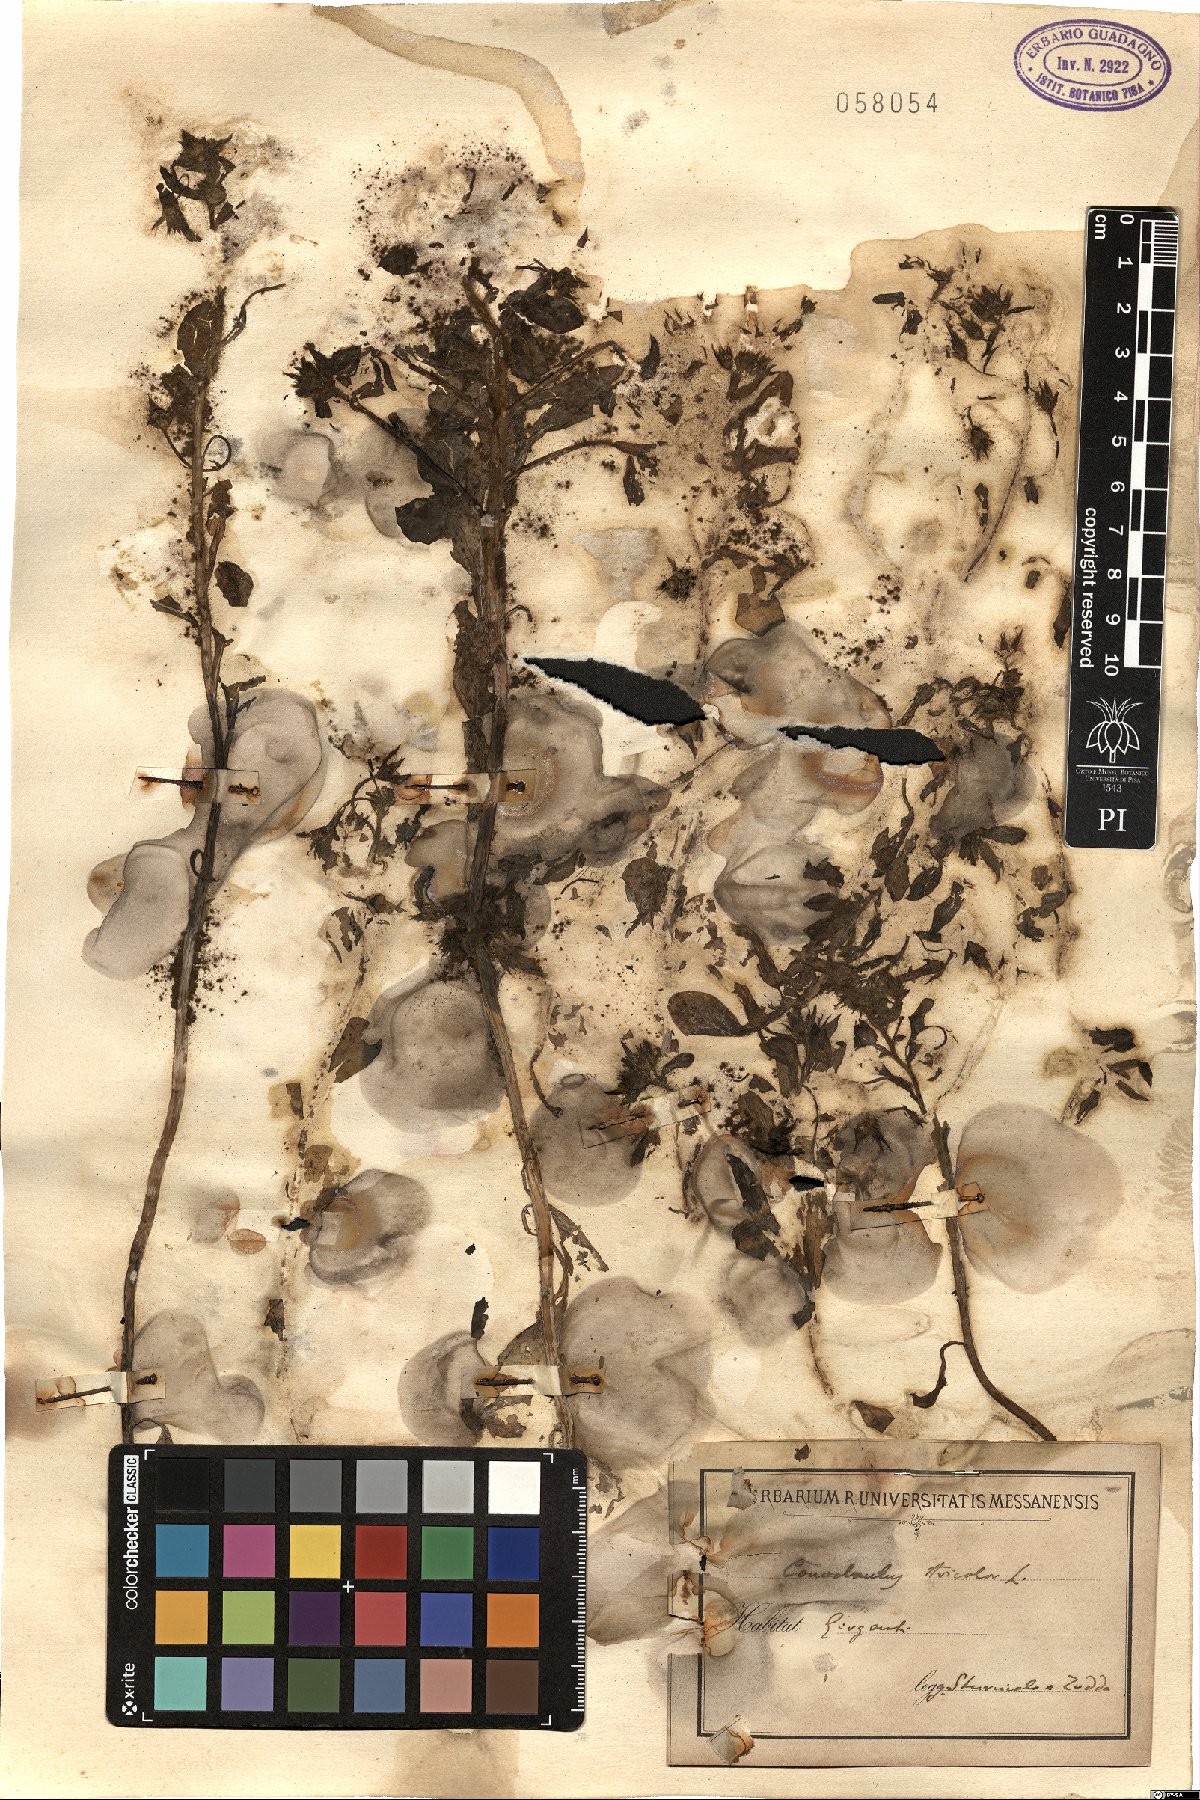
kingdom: Plantae
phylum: Tracheophyta
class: Magnoliopsida
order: Solanales
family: Convolvulaceae
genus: Convolvulus
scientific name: Convolvulus tricolor
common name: Dwarf morning-glory
